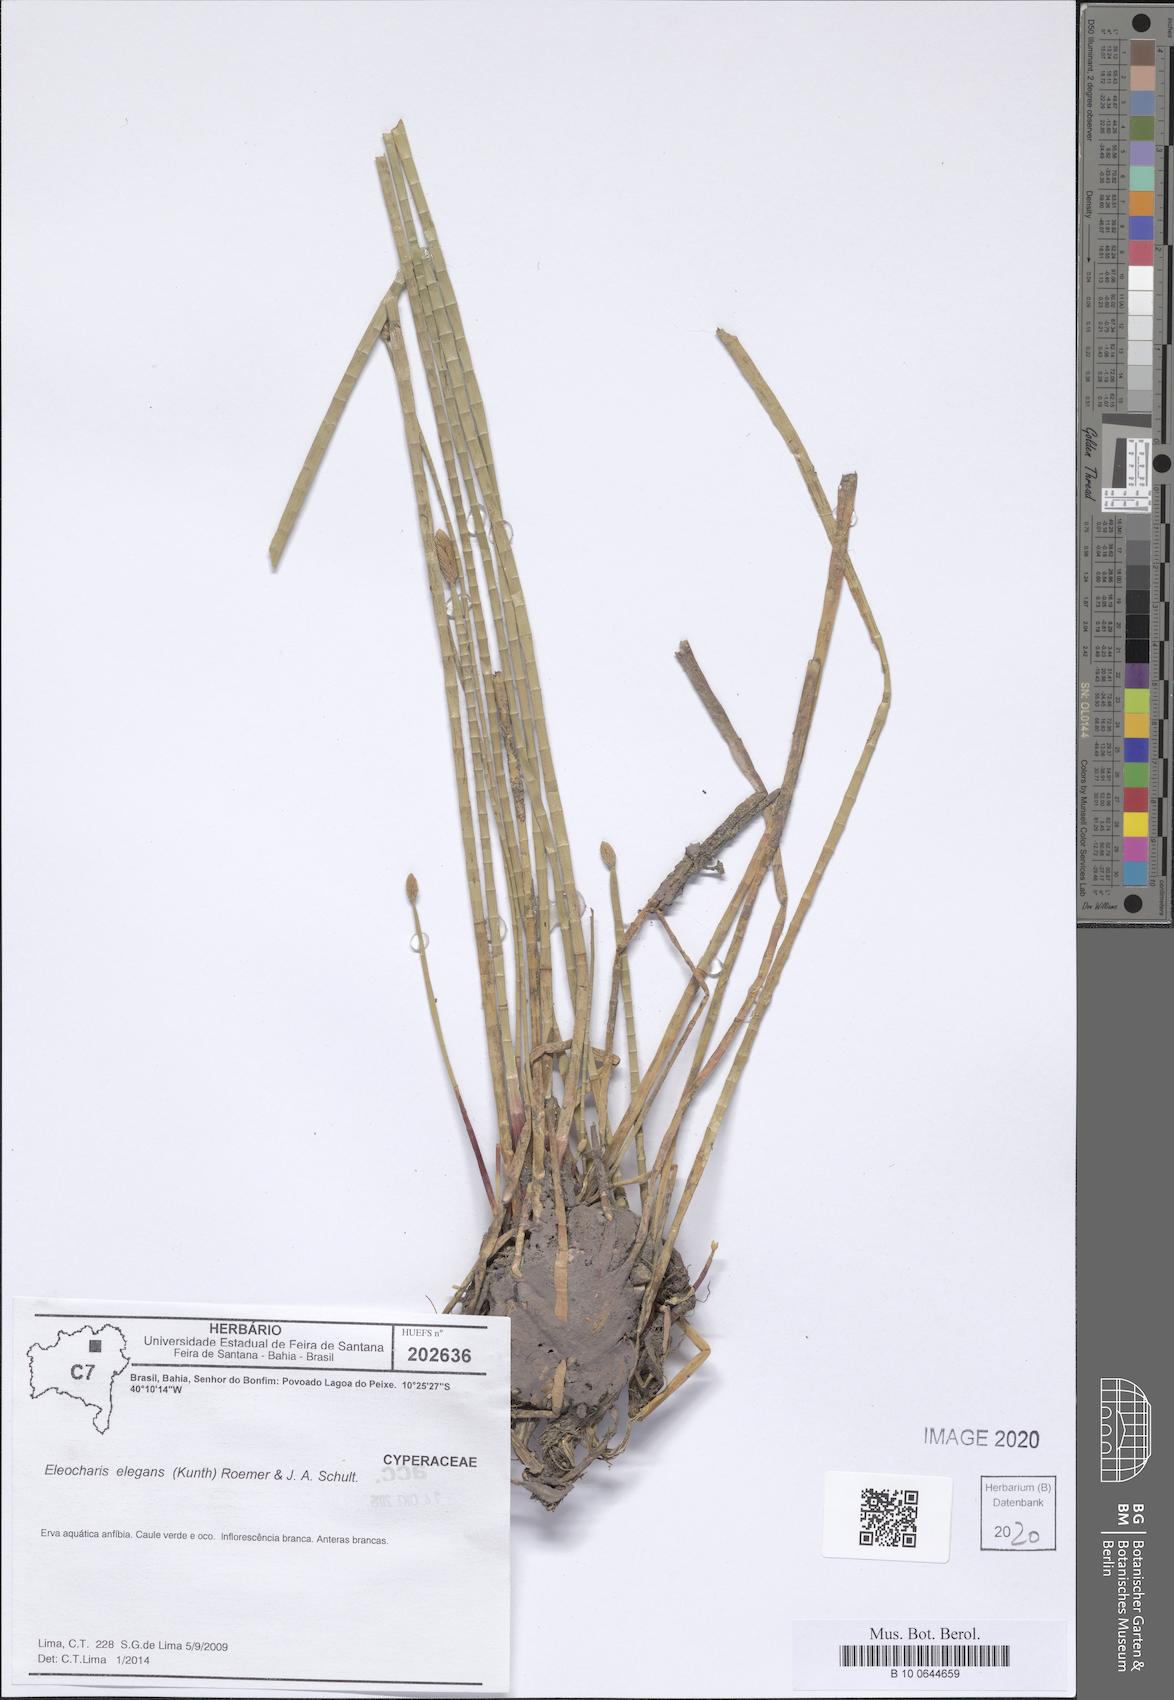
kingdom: Plantae
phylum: Tracheophyta
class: Liliopsida
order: Poales
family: Cyperaceae
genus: Eleocharis
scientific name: Eleocharis elegans
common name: Elegant spike-rush
